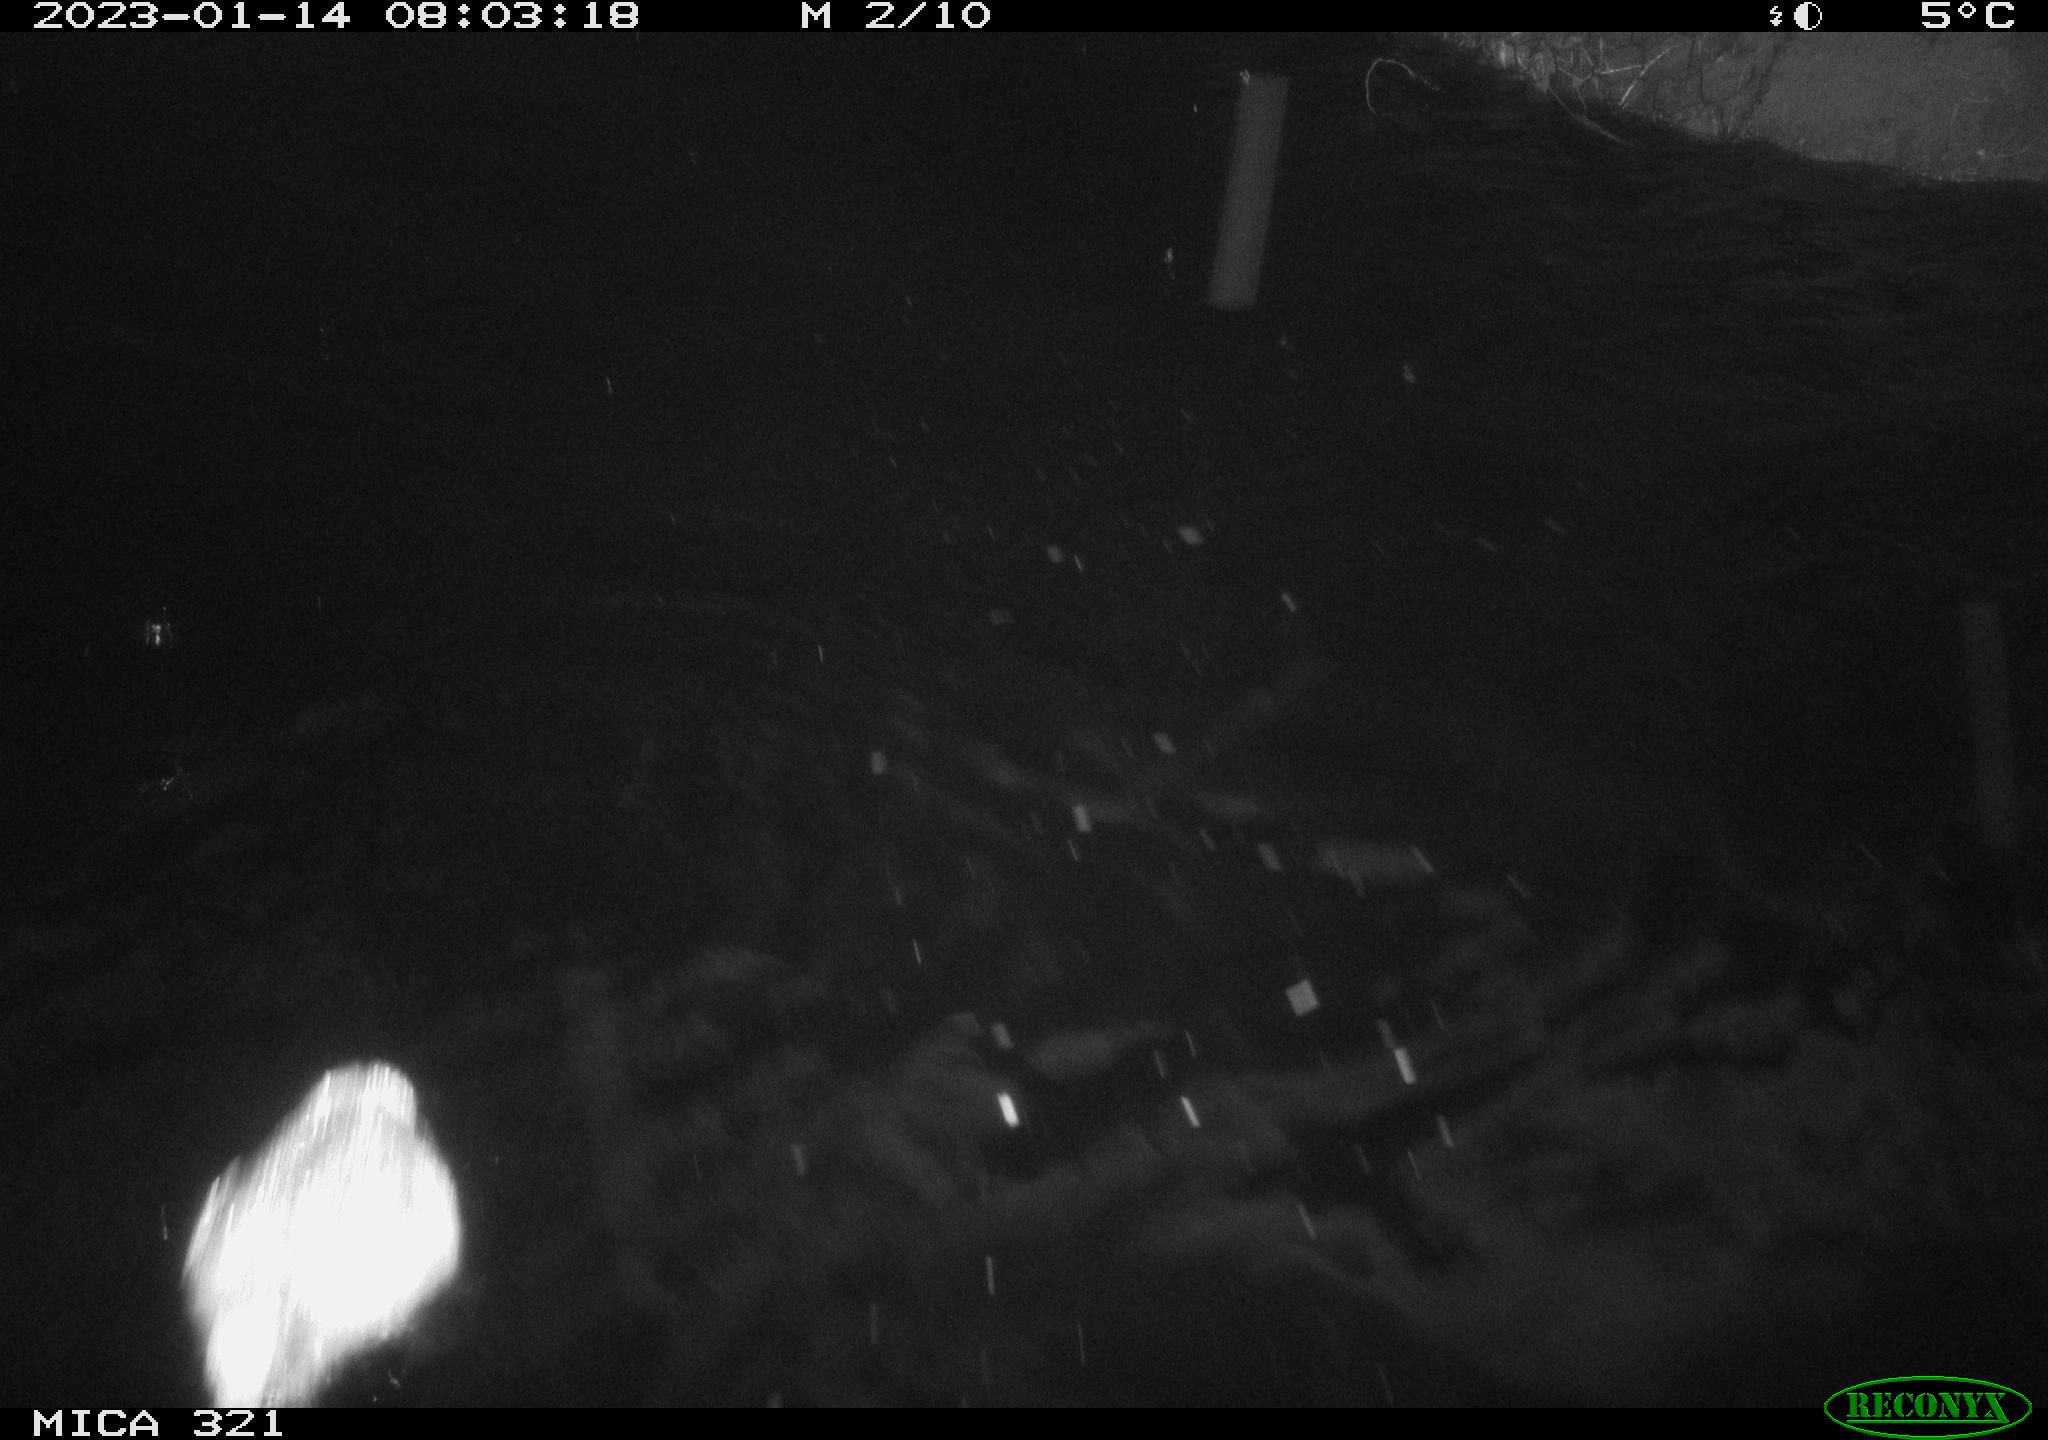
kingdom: Animalia
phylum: Chordata
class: Mammalia
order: Rodentia
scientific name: Rodentia
